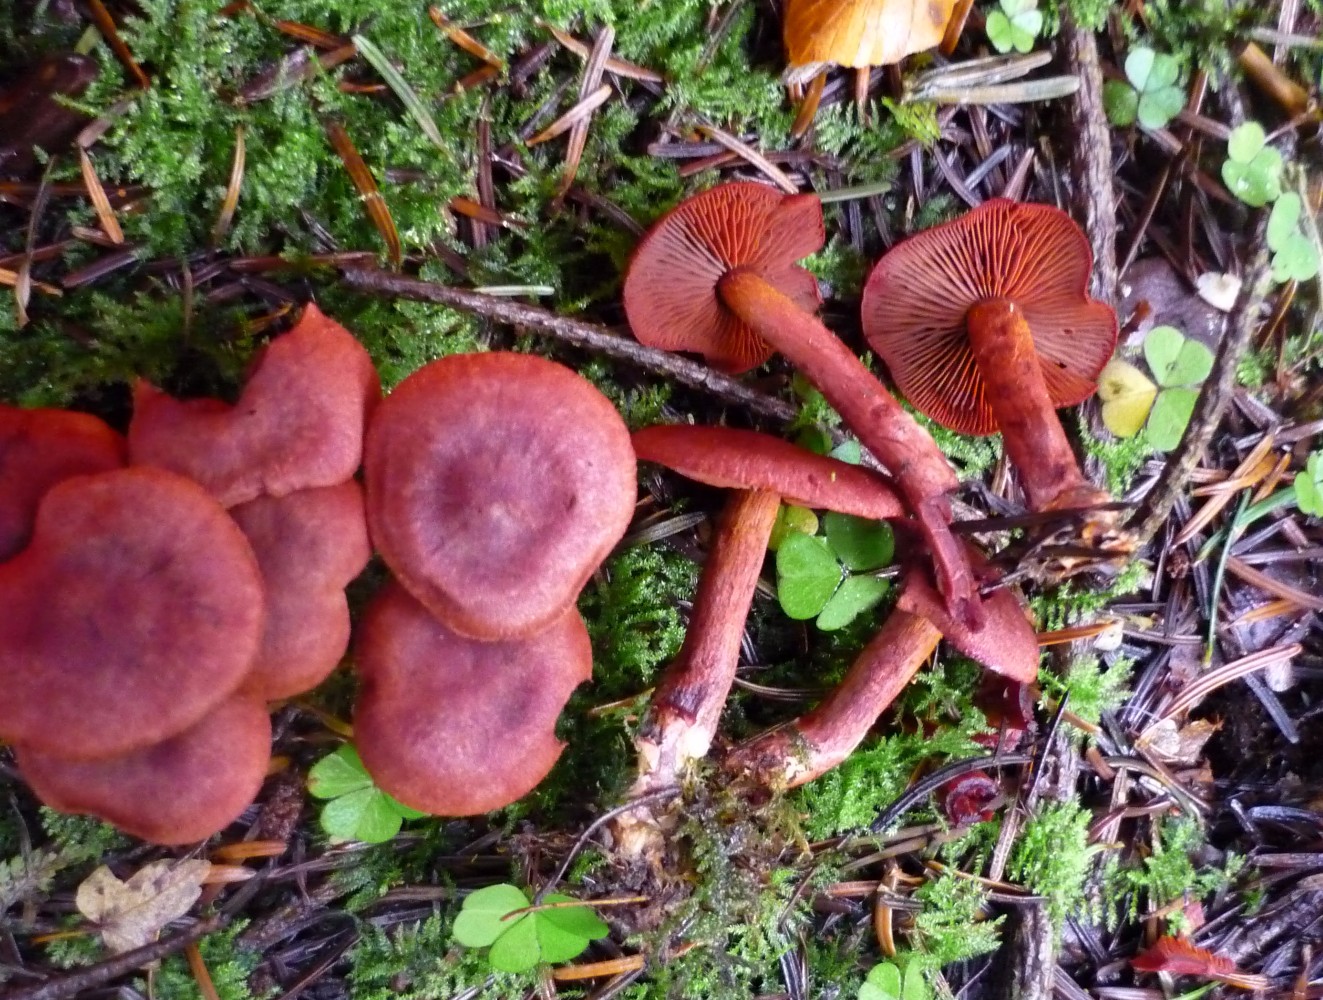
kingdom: Fungi
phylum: Basidiomycota
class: Agaricomycetes
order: Agaricales
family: Cortinariaceae
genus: Cortinarius
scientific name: Cortinarius sanguineus
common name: blodrød slørhat
